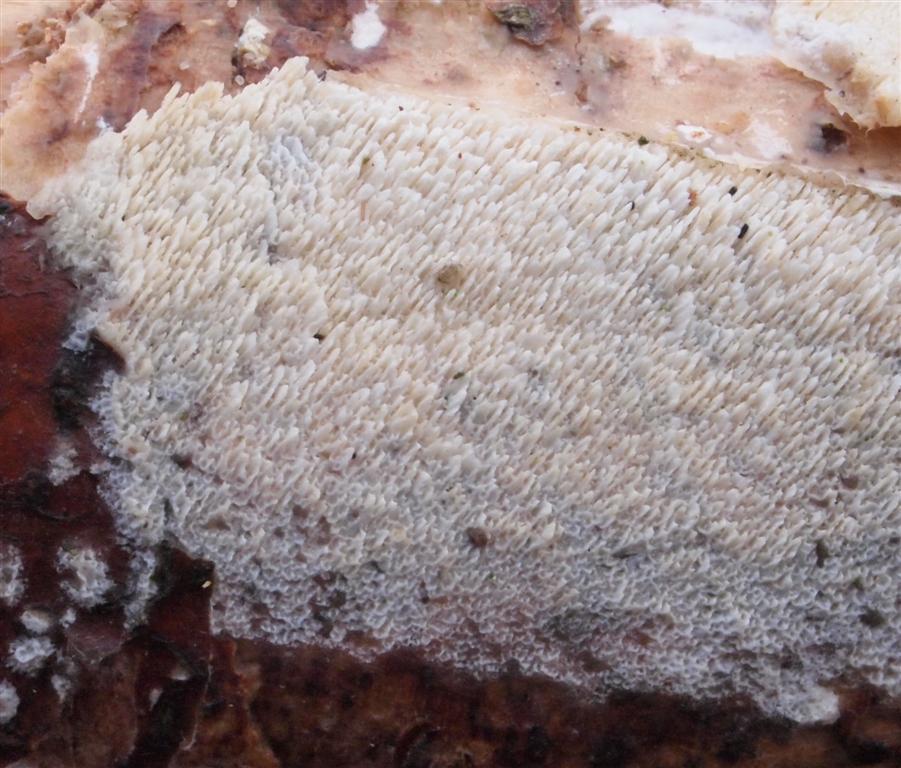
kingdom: Fungi
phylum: Basidiomycota
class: Agaricomycetes
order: Hymenochaetales
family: Schizoporaceae
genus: Schizopora
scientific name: Schizopora paradoxa
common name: hvid tandsvamp
